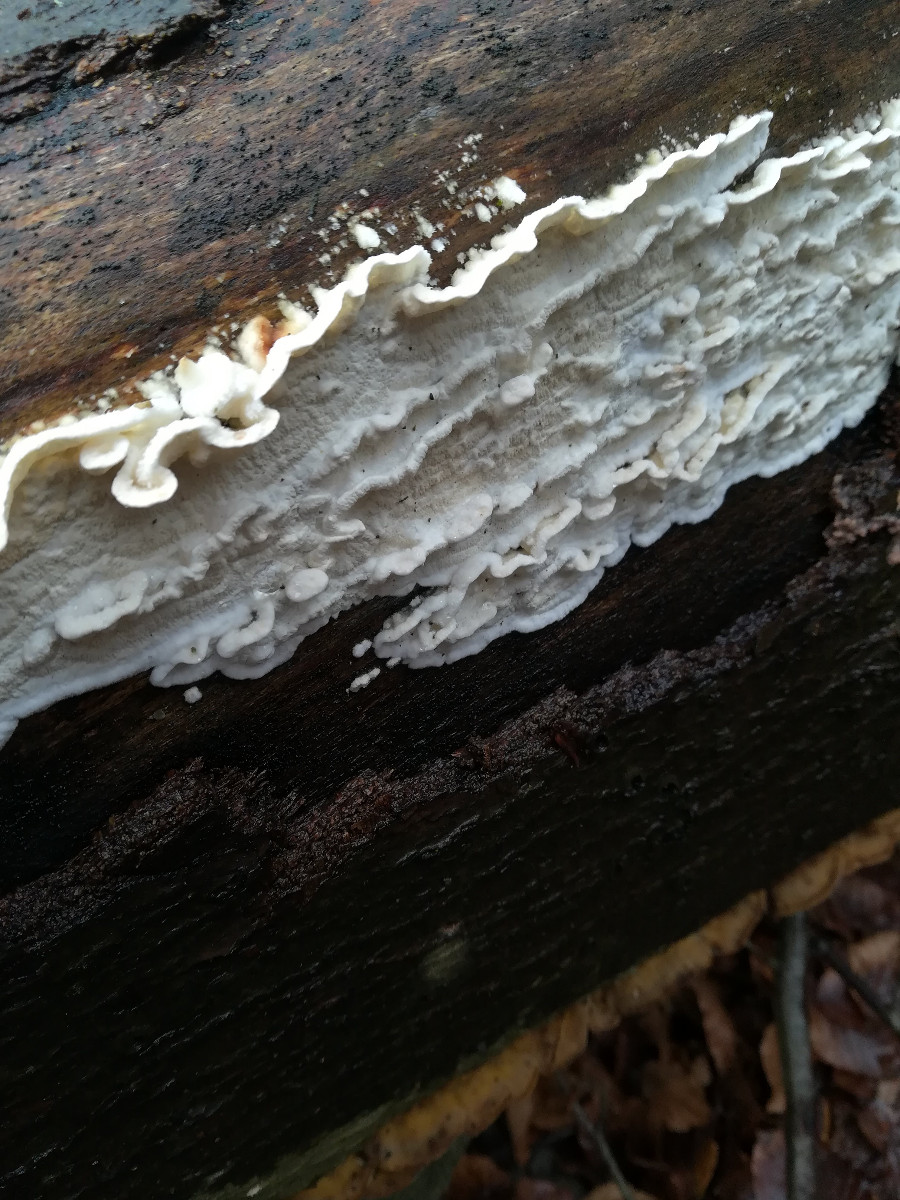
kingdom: Fungi
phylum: Basidiomycota
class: Agaricomycetes
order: Polyporales
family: Irpicaceae
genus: Byssomerulius
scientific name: Byssomerulius corium
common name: læder-åresvamp
